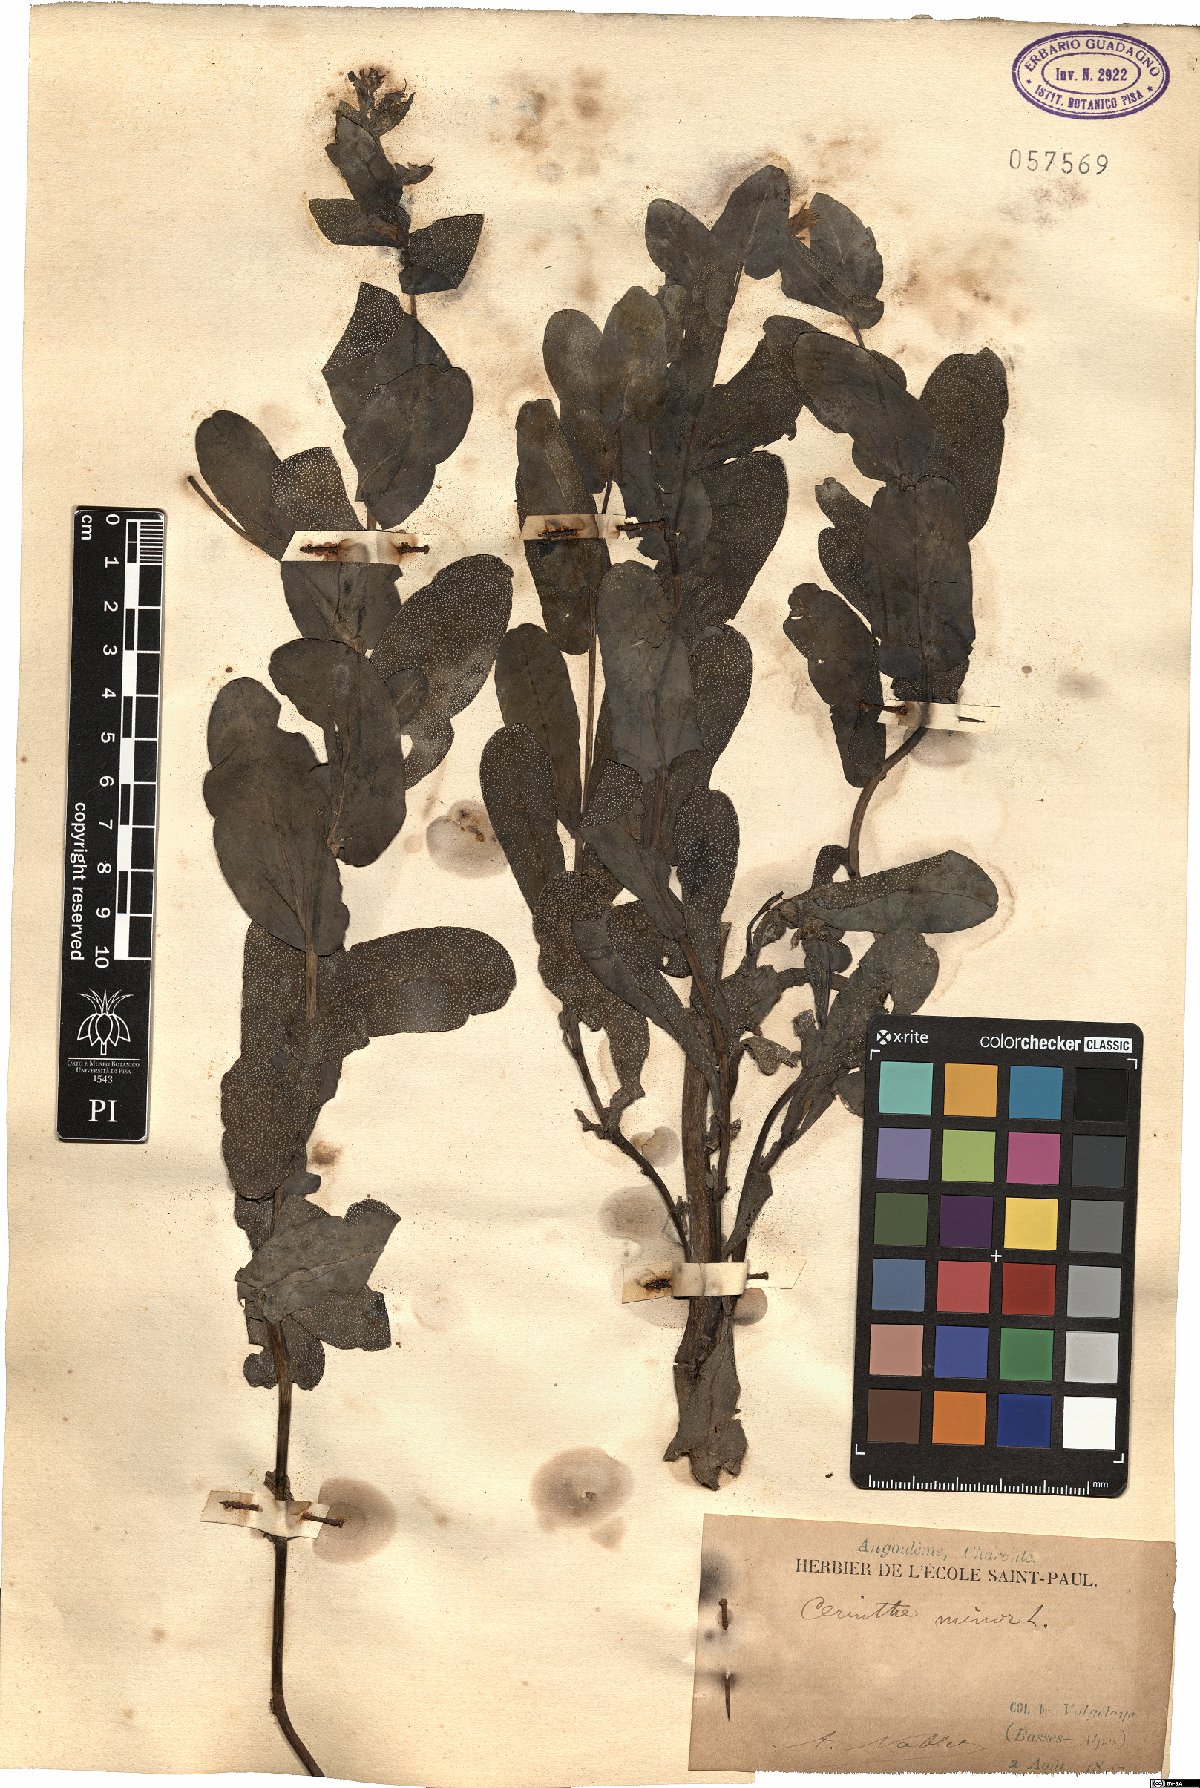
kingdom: Plantae
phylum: Tracheophyta
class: Magnoliopsida
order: Boraginales
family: Boraginaceae
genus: Cerinthe
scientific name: Cerinthe minor
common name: Lesser honeywort
